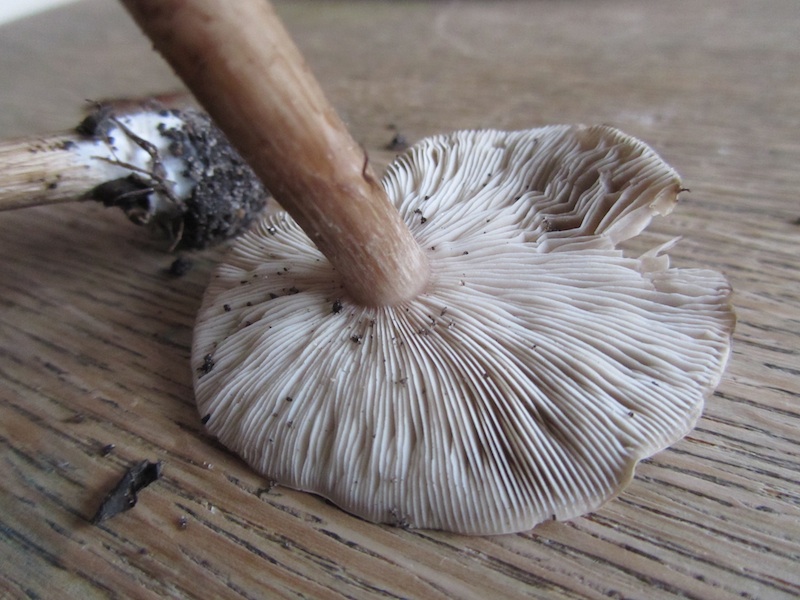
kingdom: Fungi
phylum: Basidiomycota
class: Agaricomycetes
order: Agaricales
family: Tricholomataceae
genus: Melanoleuca
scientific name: Melanoleuca exscissa
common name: gusten munkehat
